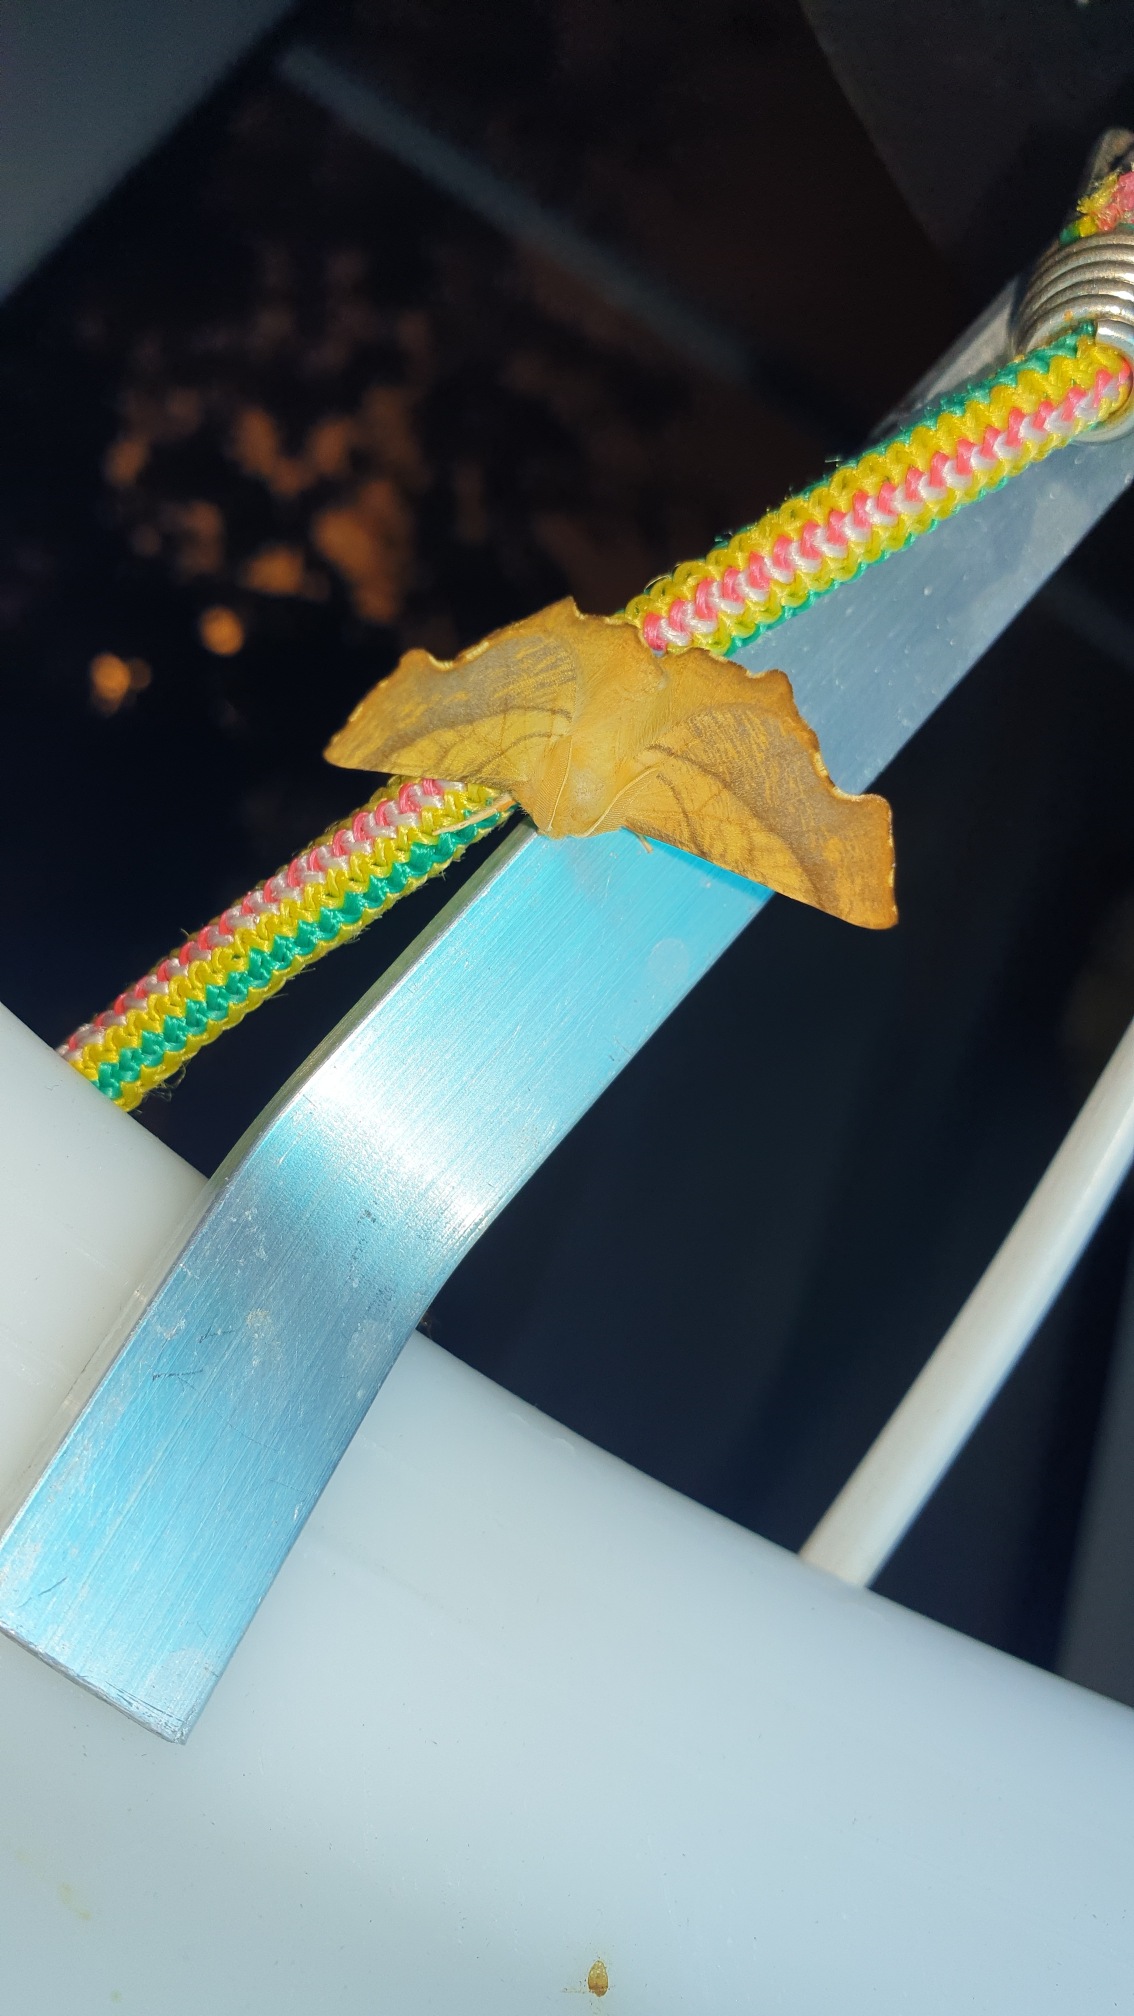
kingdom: Animalia
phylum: Arthropoda
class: Insecta
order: Lepidoptera
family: Geometridae
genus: Ennomos
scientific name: Ennomos fuscantaria
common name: Asketandmåler
